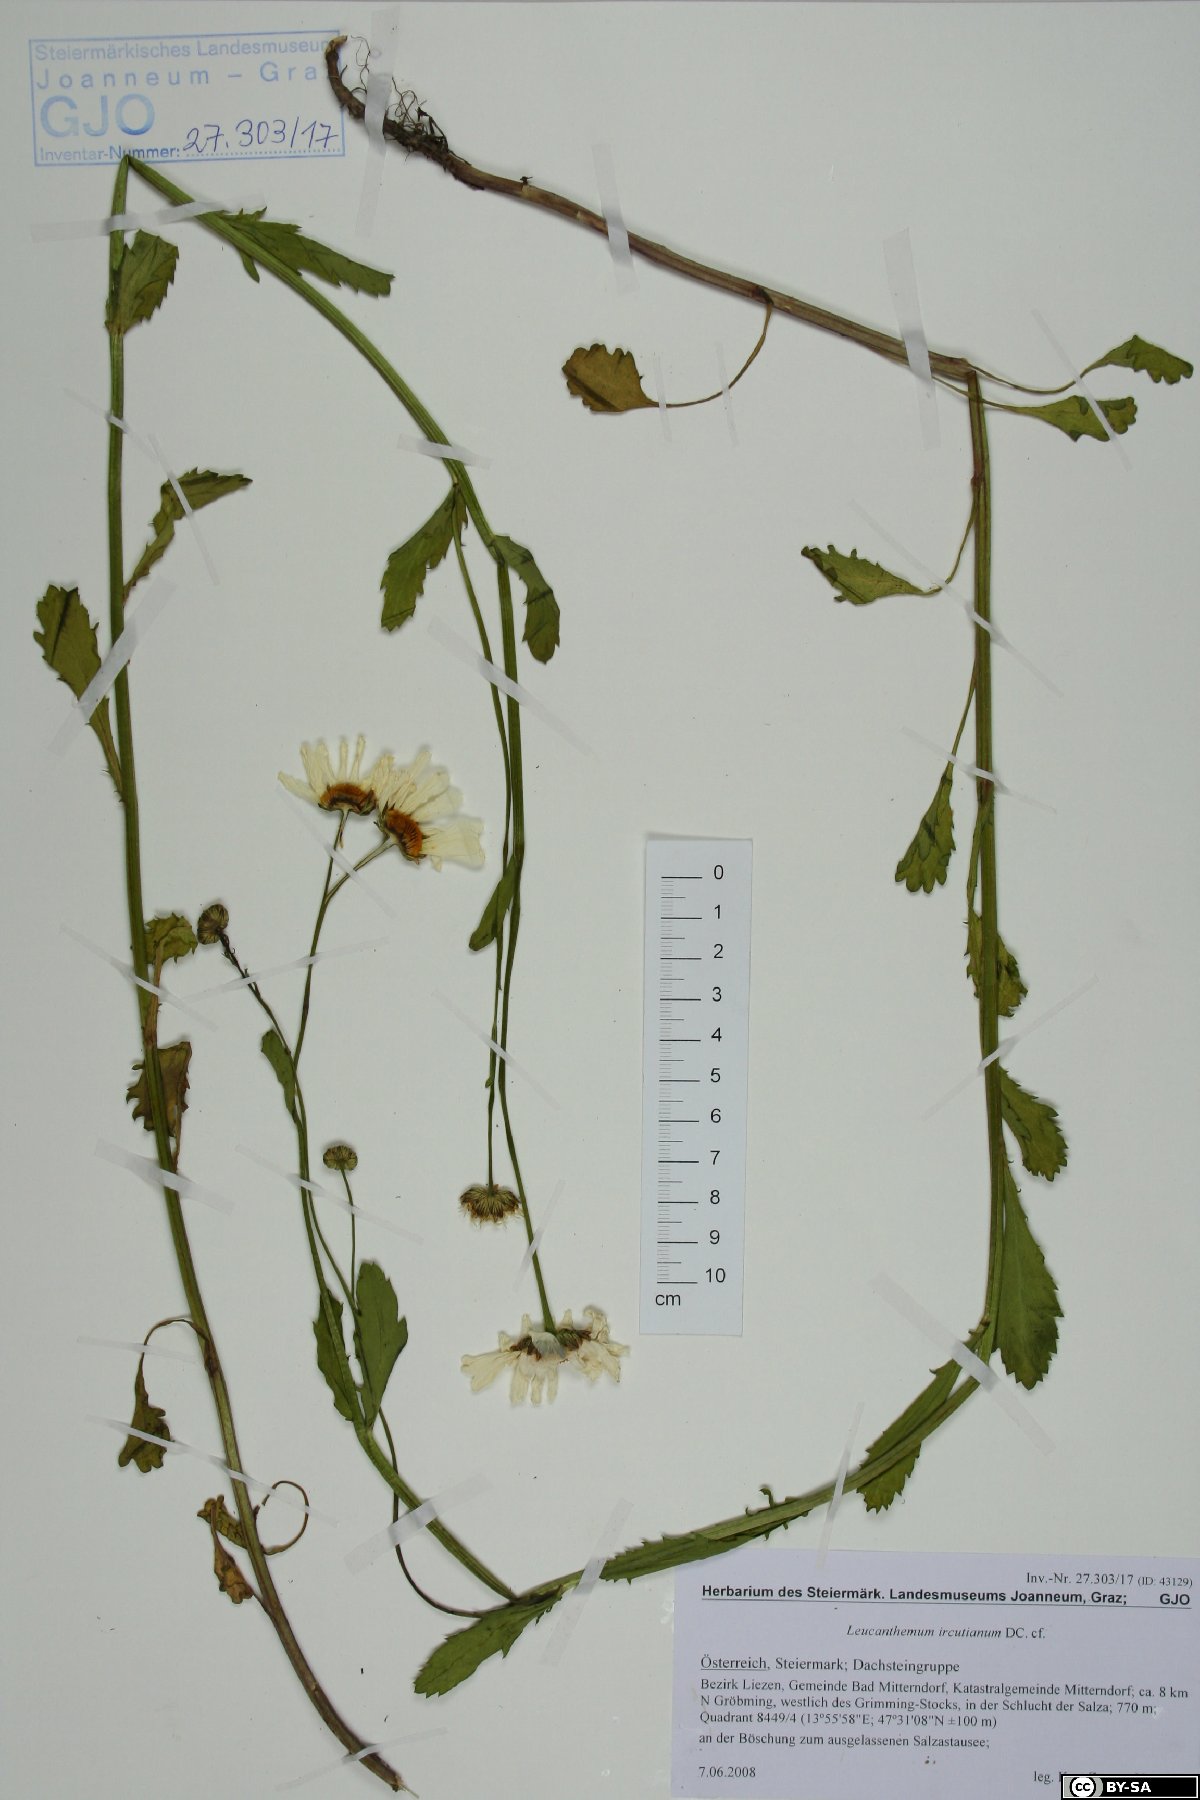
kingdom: Plantae
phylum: Tracheophyta
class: Magnoliopsida
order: Asterales
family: Asteraceae
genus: Leucanthemum
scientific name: Leucanthemum ircutianum
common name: Daisy
